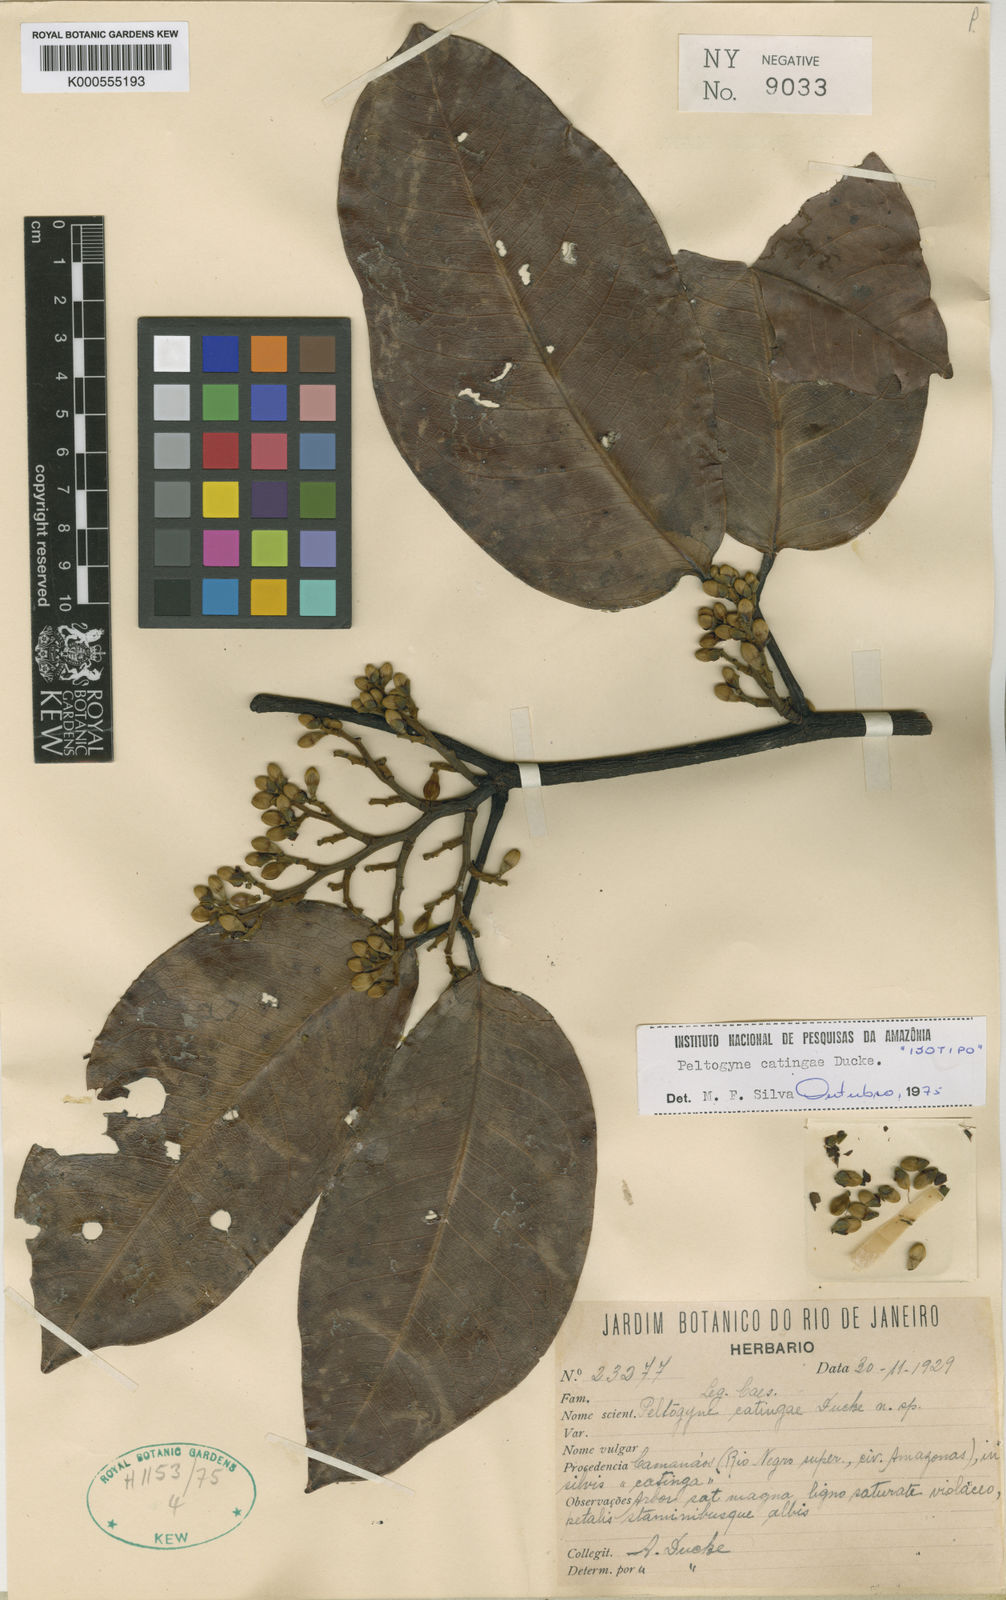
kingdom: Plantae
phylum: Tracheophyta
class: Magnoliopsida
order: Fabales
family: Fabaceae
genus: Peltogyne
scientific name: Peltogyne catingae
